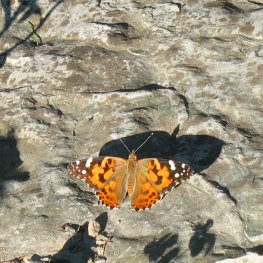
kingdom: Animalia
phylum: Arthropoda
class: Insecta
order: Lepidoptera
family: Nymphalidae
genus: Vanessa
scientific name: Vanessa cardui
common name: Painted Lady
